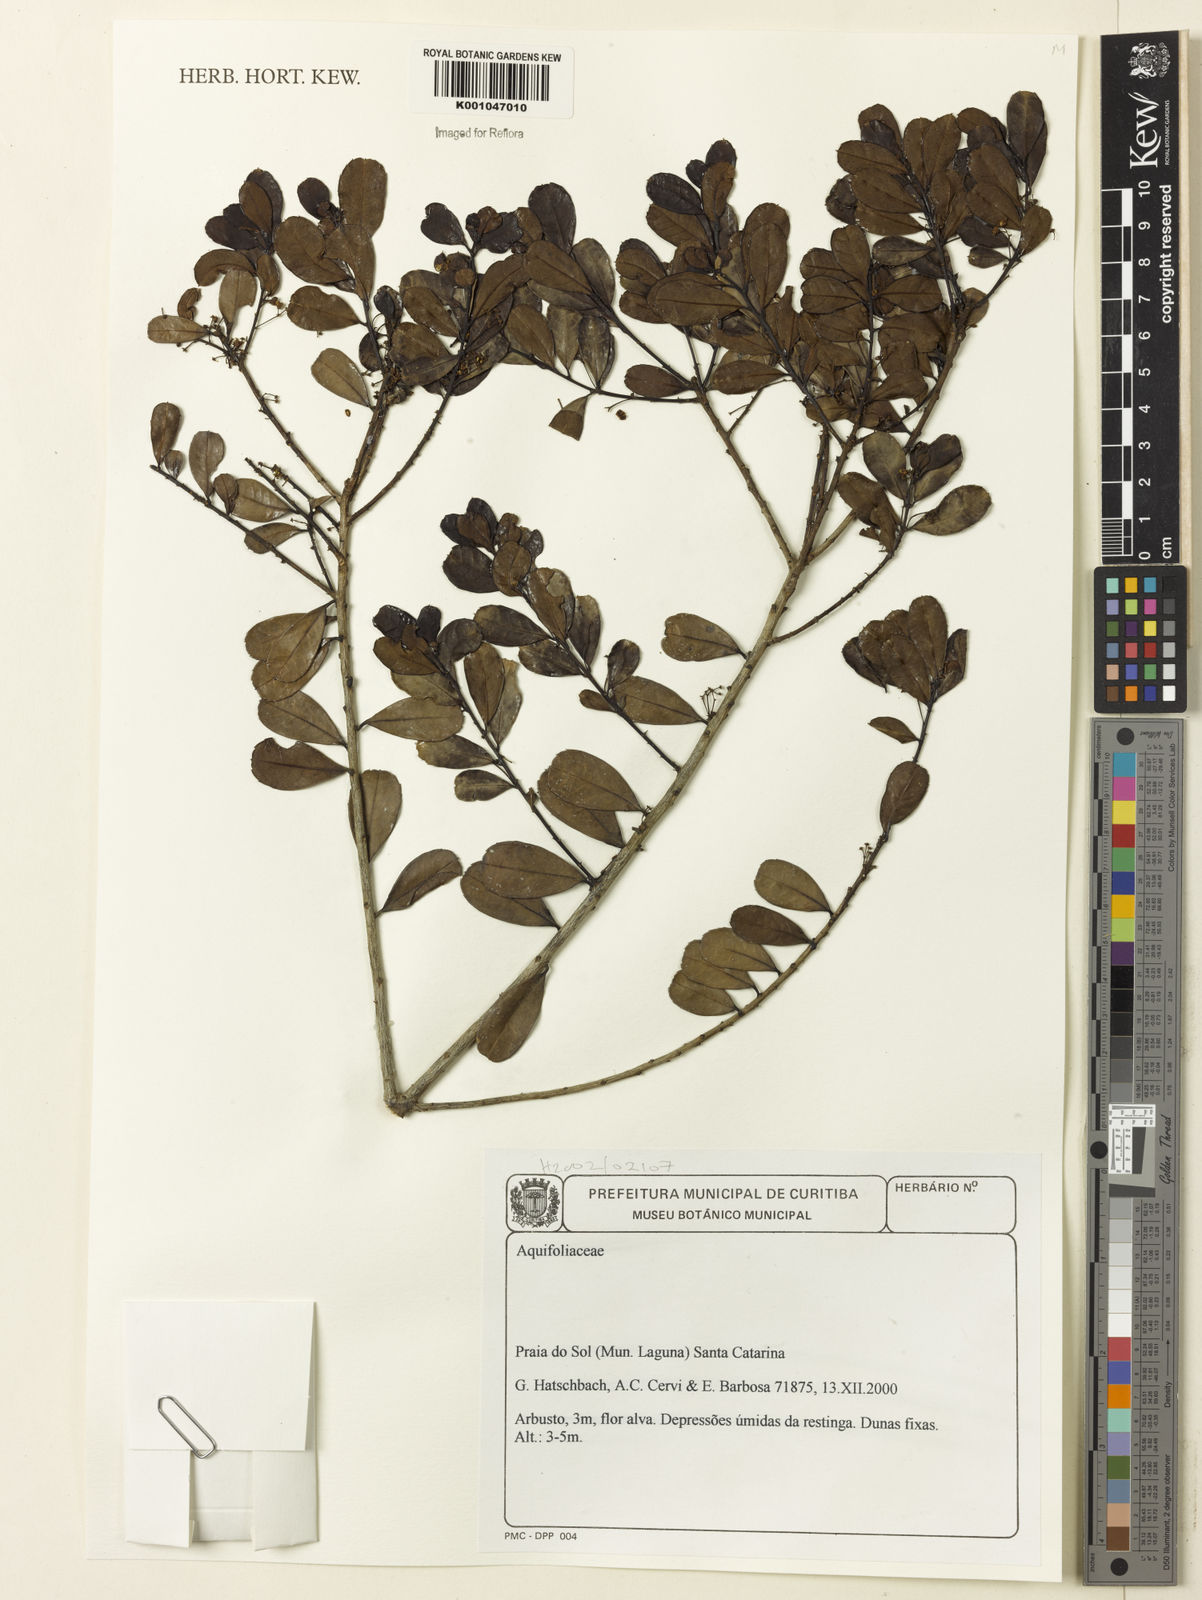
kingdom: Plantae
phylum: Tracheophyta
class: Magnoliopsida
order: Aquifoliales
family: Aquifoliaceae
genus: Ilex
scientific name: Ilex
